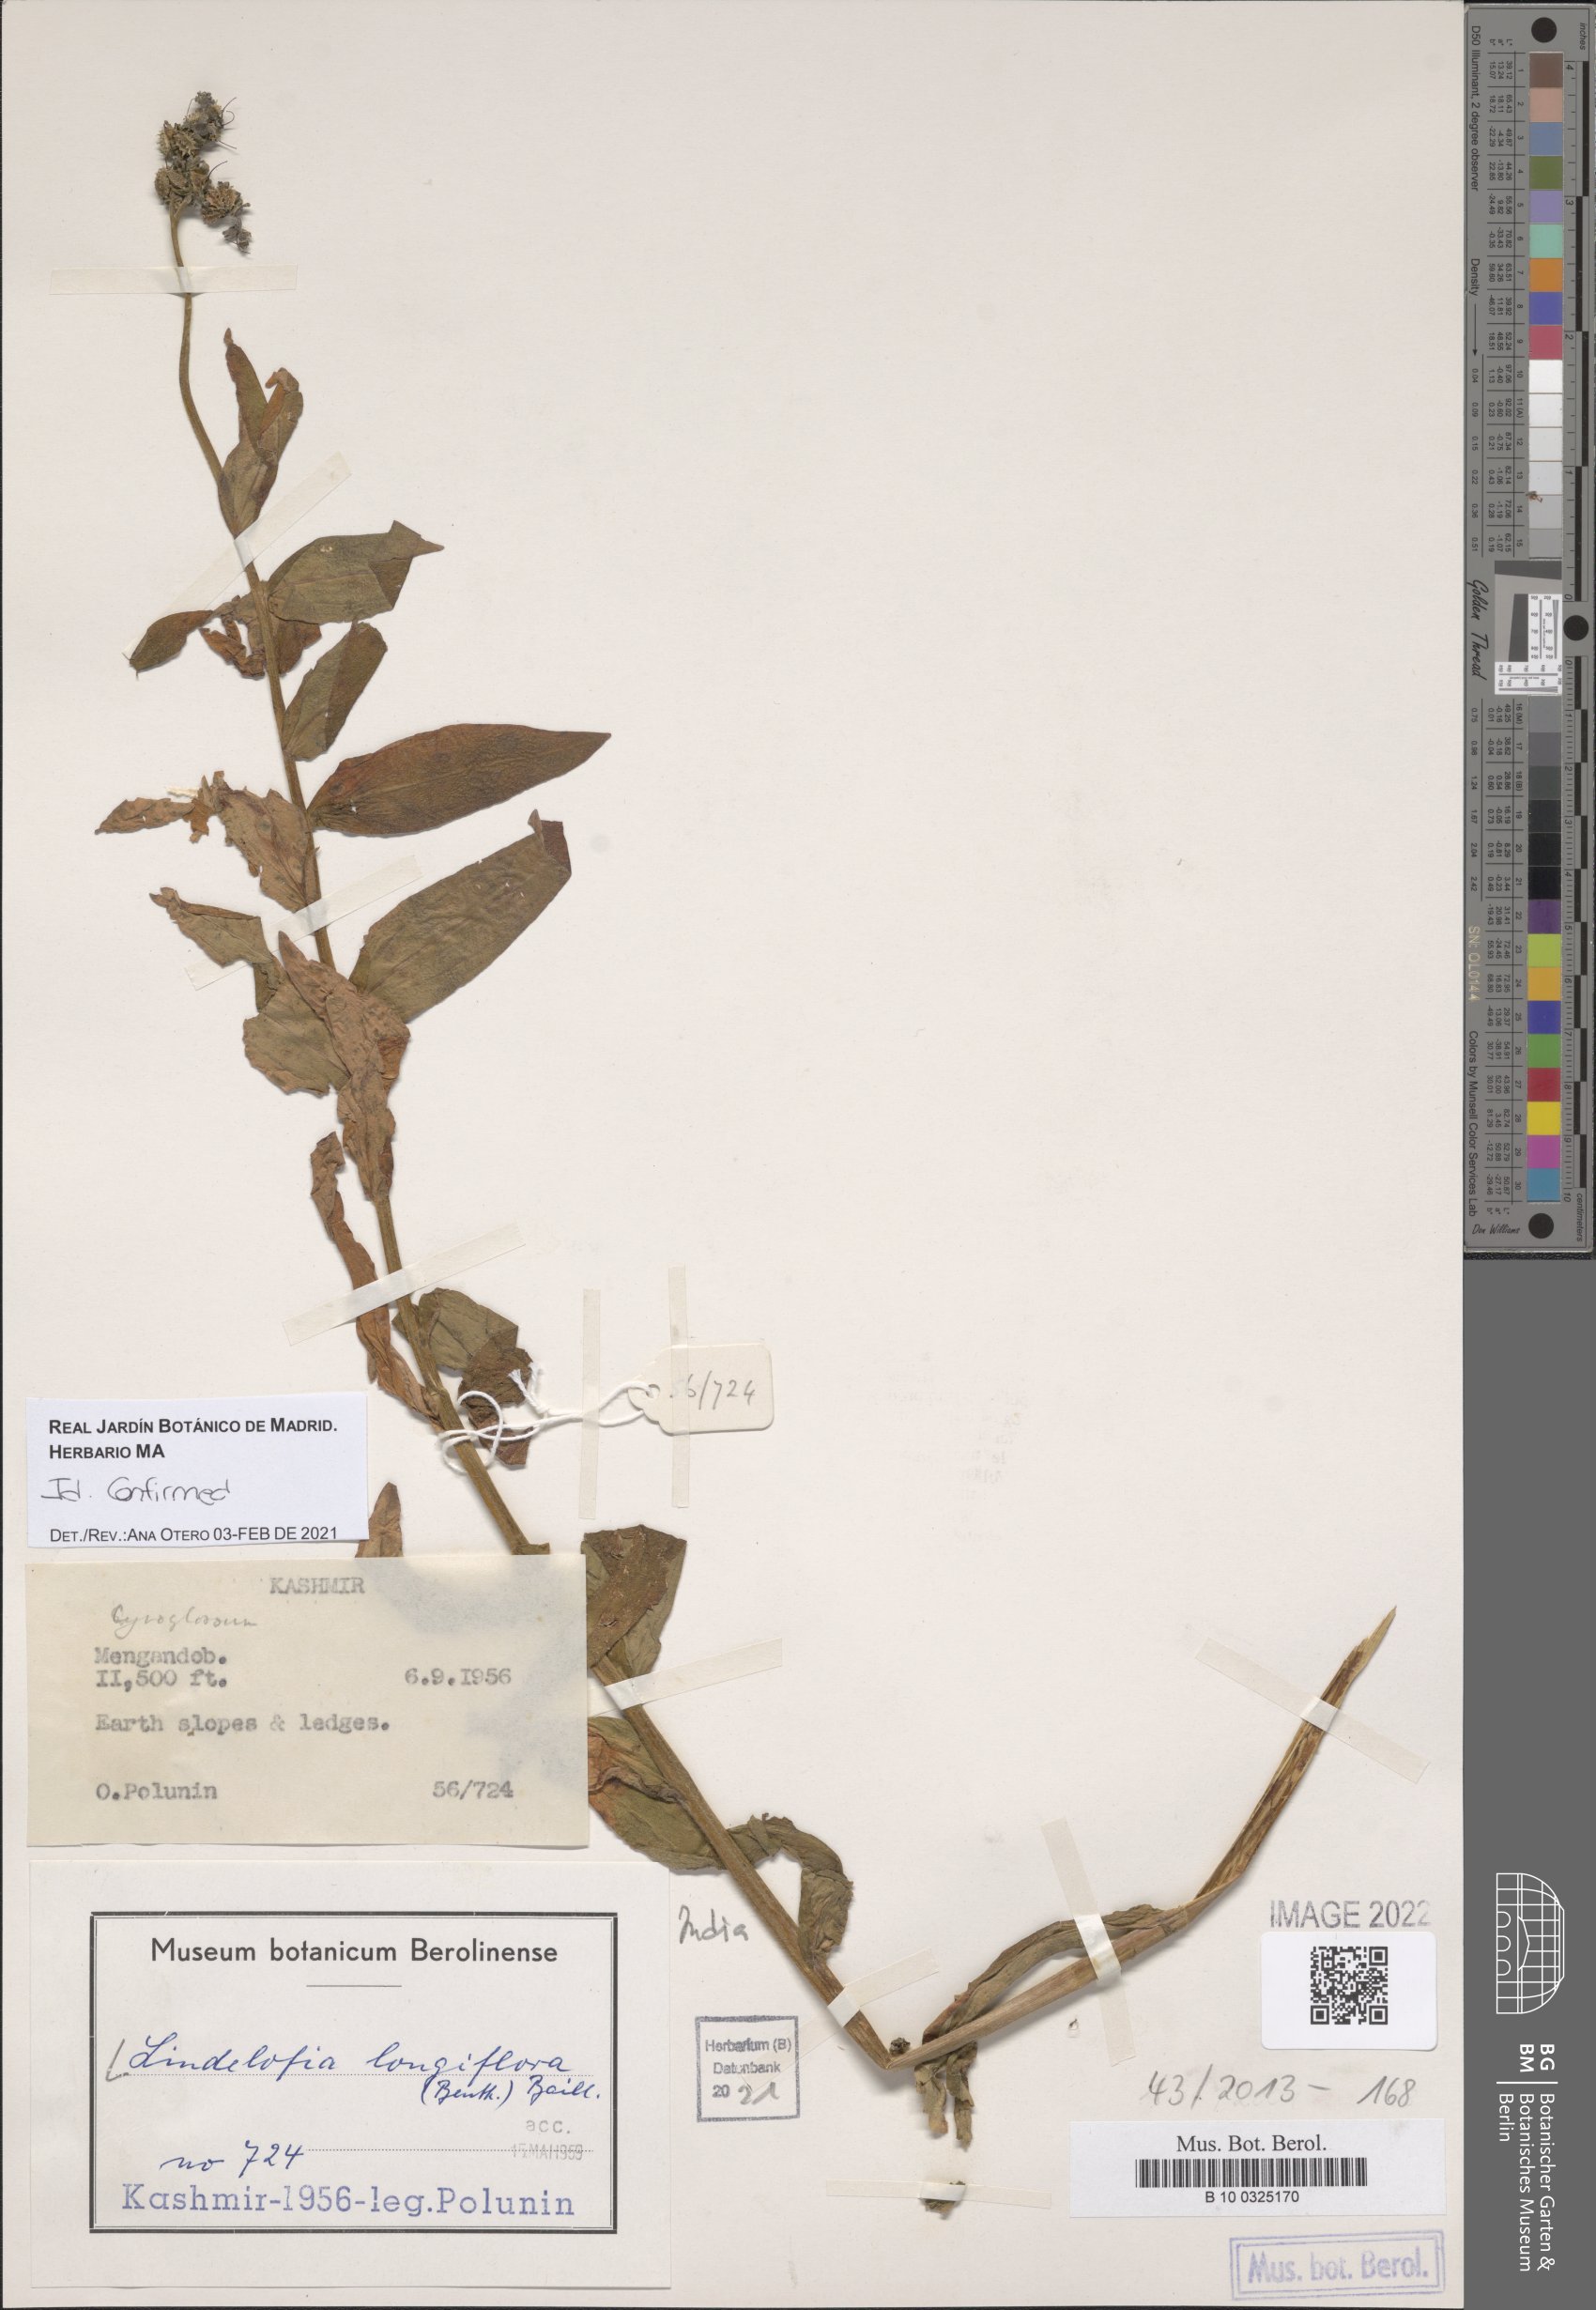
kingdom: Plantae
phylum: Tracheophyta
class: Magnoliopsida
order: Boraginales
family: Boraginaceae
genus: Lindelofia
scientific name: Lindelofia longiflora
